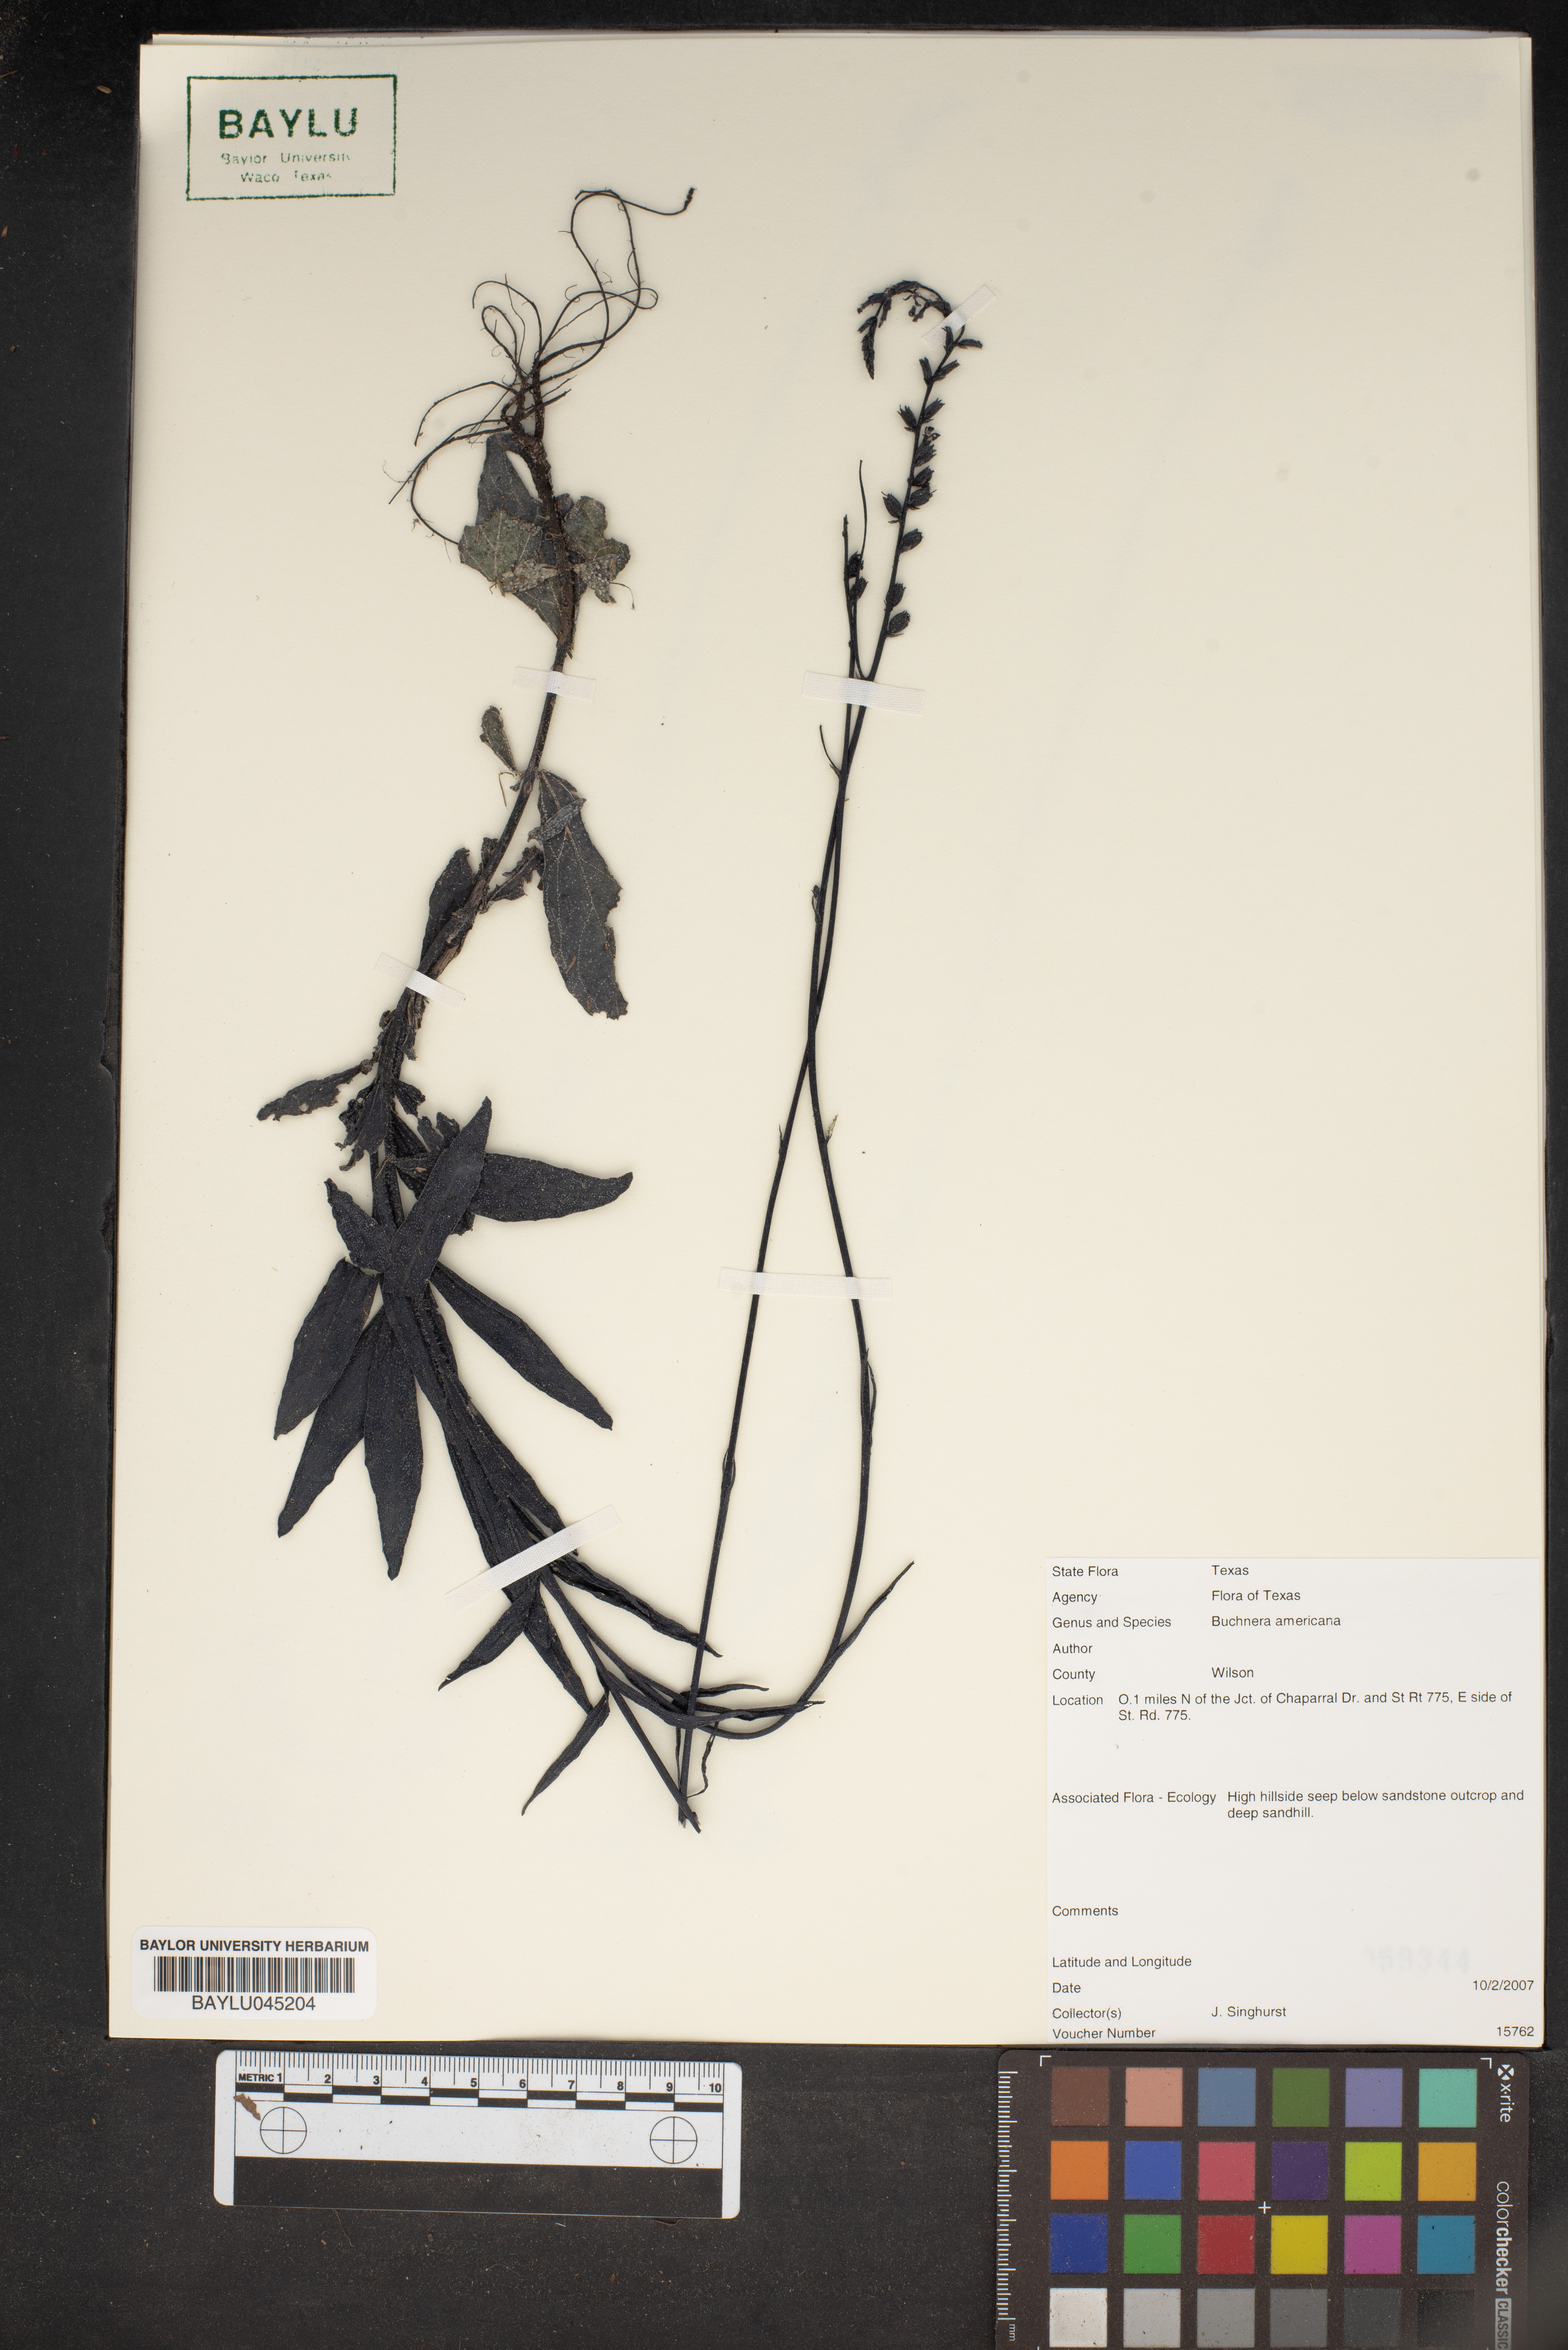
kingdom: Plantae
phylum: Tracheophyta
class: Magnoliopsida
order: Lamiales
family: Orobanchaceae
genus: Buchnera
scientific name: Buchnera americana
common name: American bluehearts
